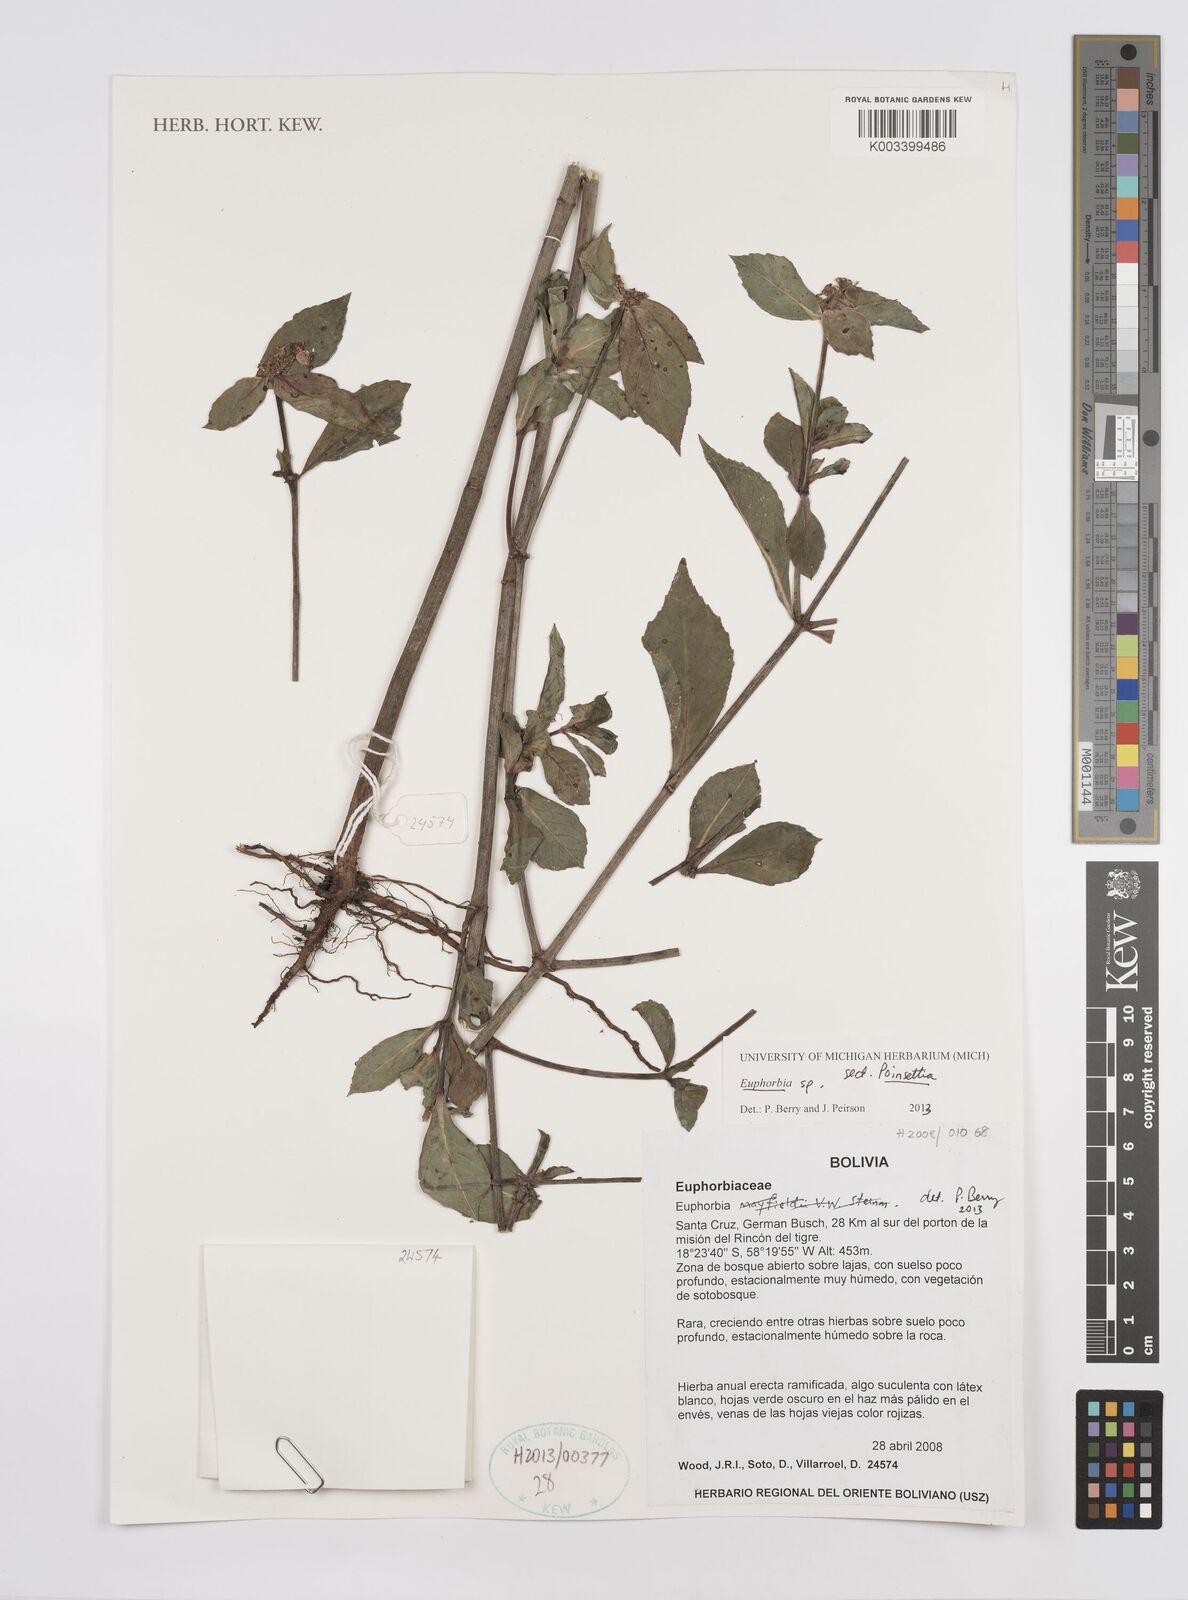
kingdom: Plantae
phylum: Tracheophyta
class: Magnoliopsida
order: Malpighiales
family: Euphorbiaceae
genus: Euphorbia
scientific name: Euphorbia
